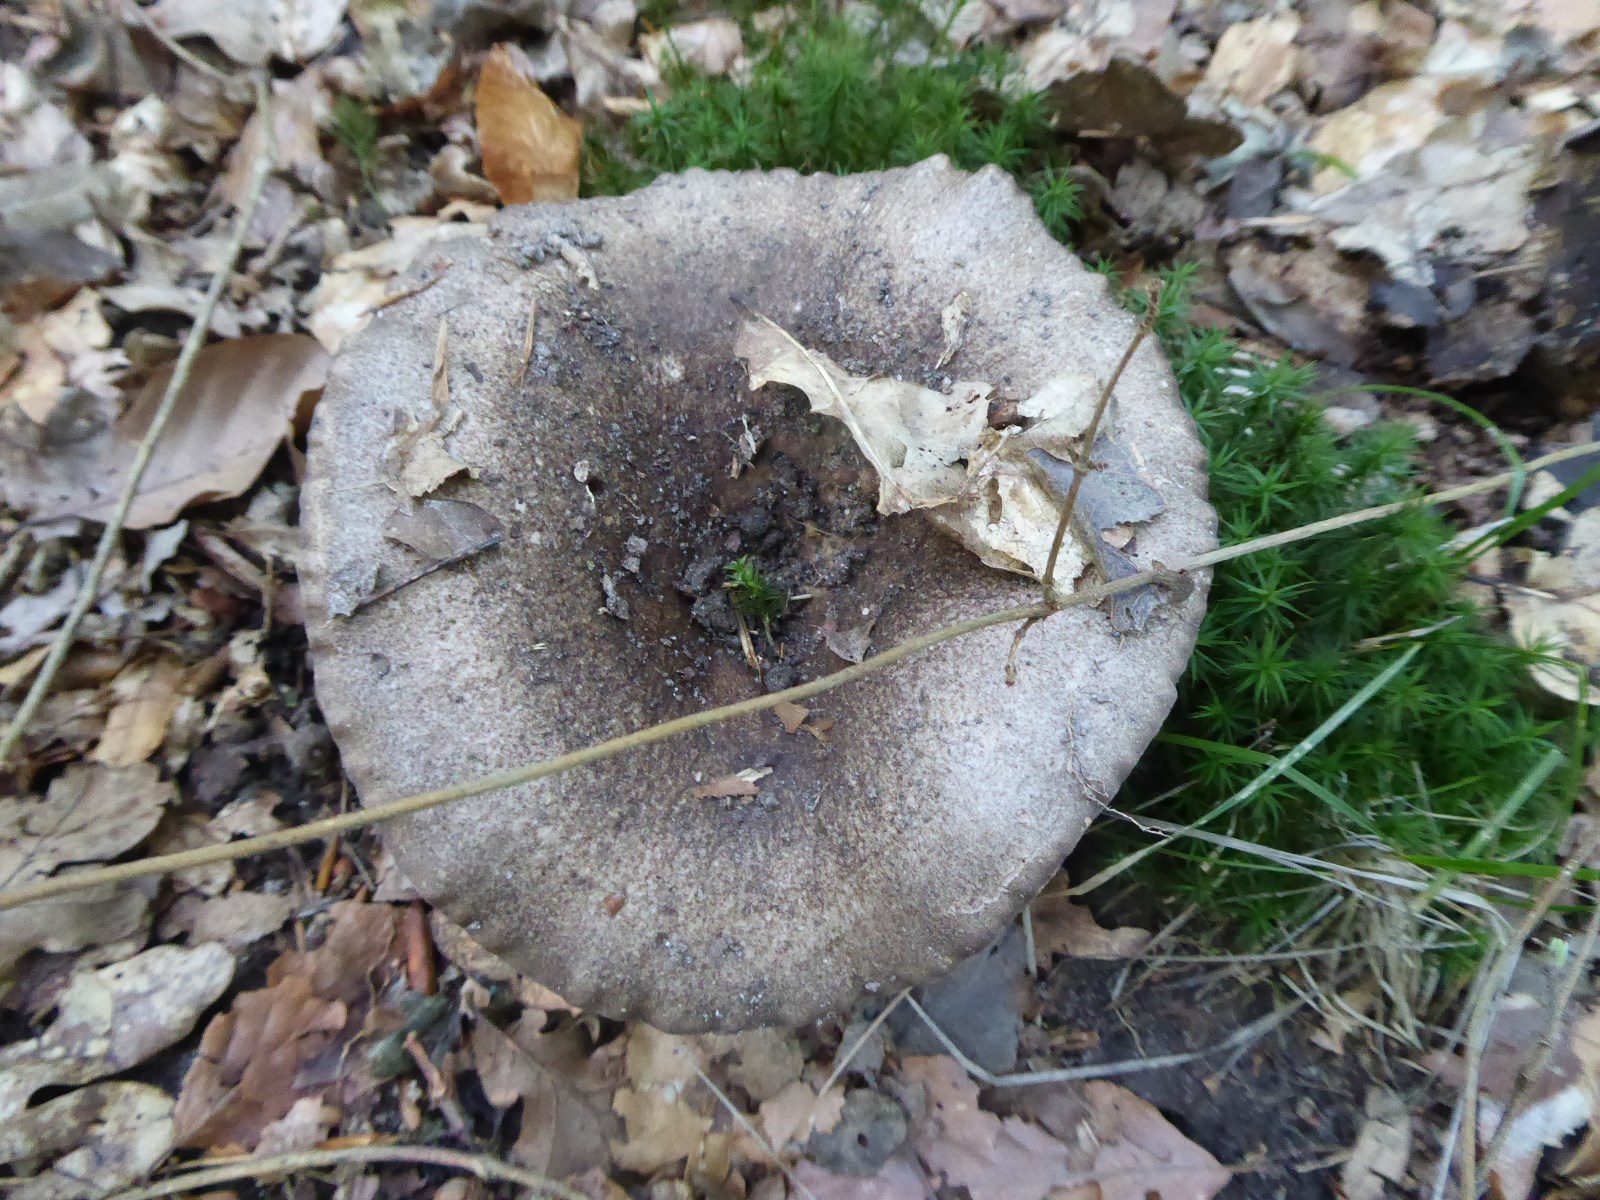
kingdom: Fungi
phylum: Basidiomycota
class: Agaricomycetes
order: Russulales
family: Russulaceae
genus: Russula
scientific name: Russula adusta
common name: sværtende skørhat
